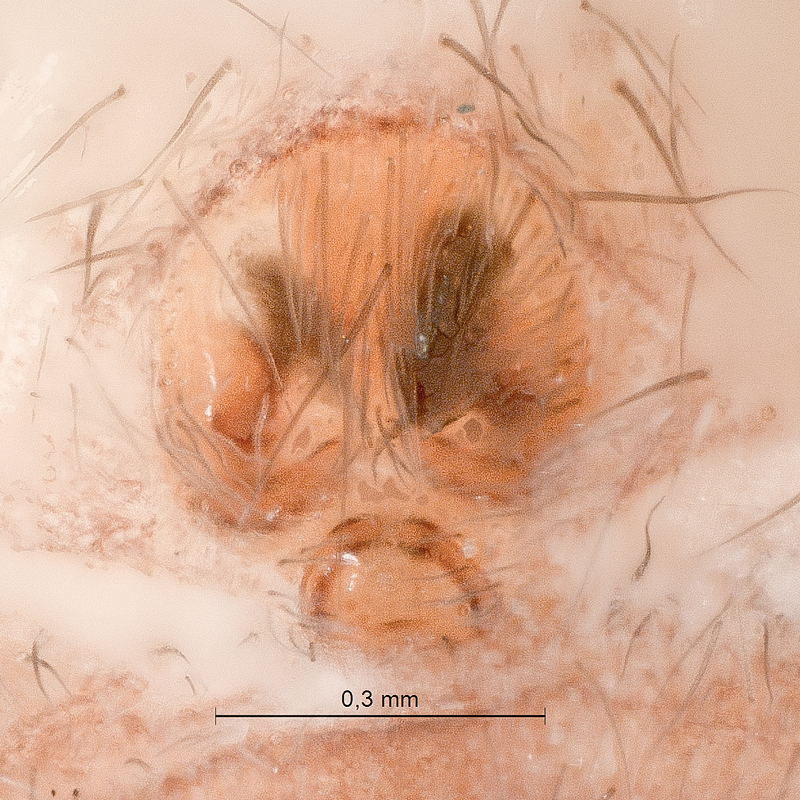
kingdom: Animalia
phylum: Arthropoda
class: Arachnida
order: Araneae
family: Liocranidae
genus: Agroeca
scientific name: Agroeca proxima
